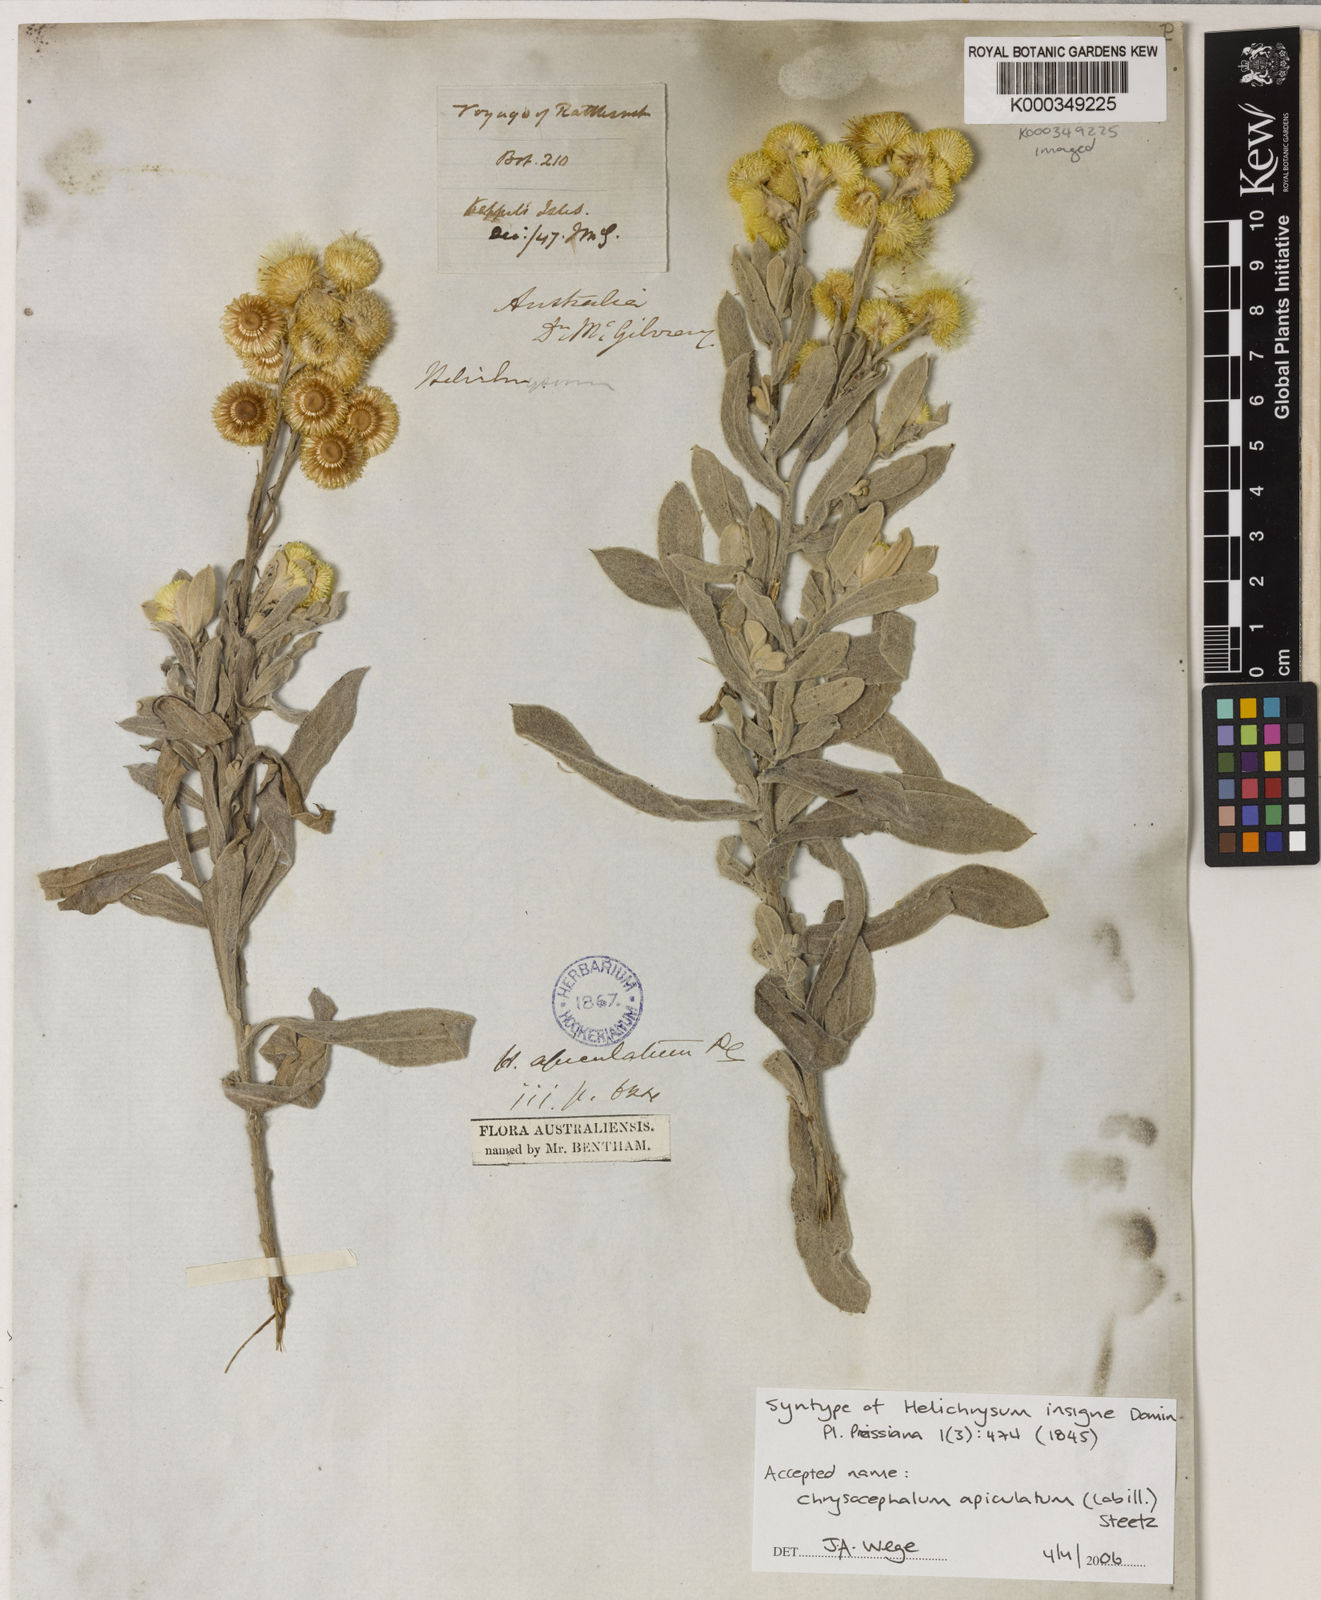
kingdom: Plantae
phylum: Tracheophyta
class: Magnoliopsida
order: Asterales
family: Asteraceae
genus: Chrysocephalum
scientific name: Chrysocephalum apiculatum
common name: Common everlasting
